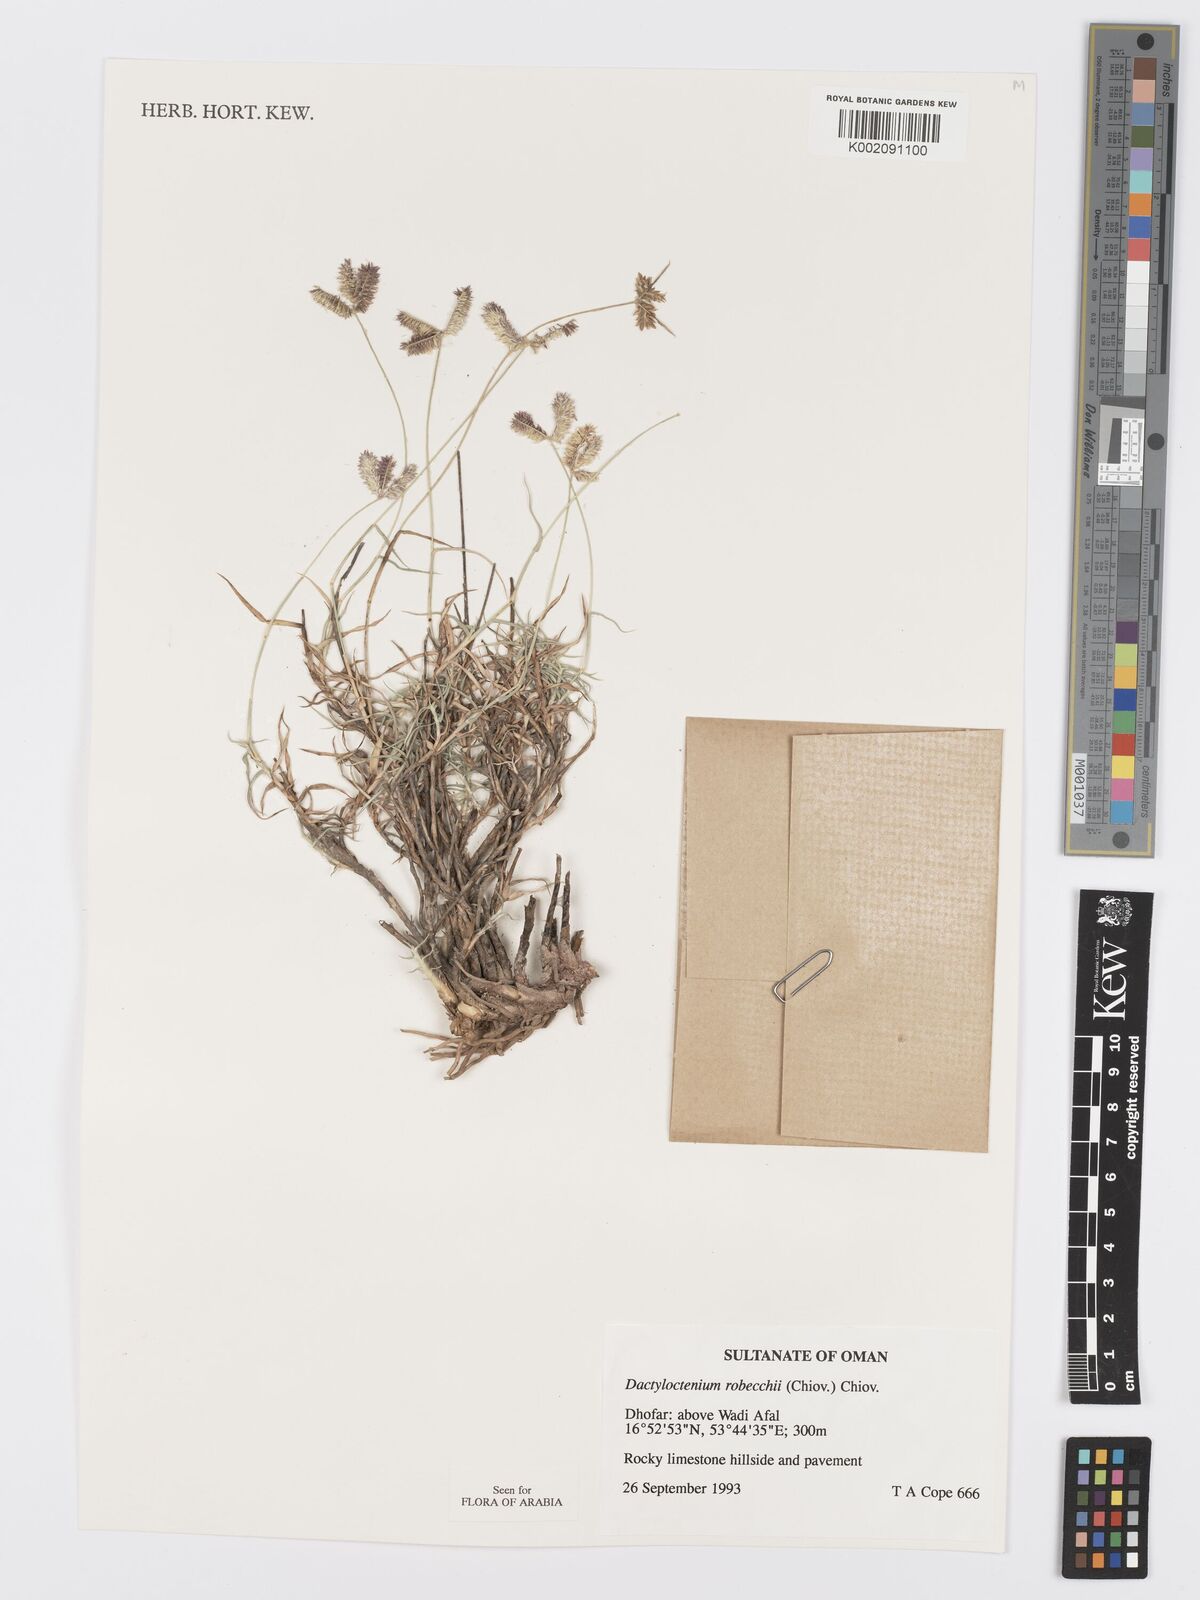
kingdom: Plantae
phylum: Tracheophyta
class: Liliopsida
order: Poales
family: Poaceae
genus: Dactyloctenium
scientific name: Dactyloctenium robecchii
